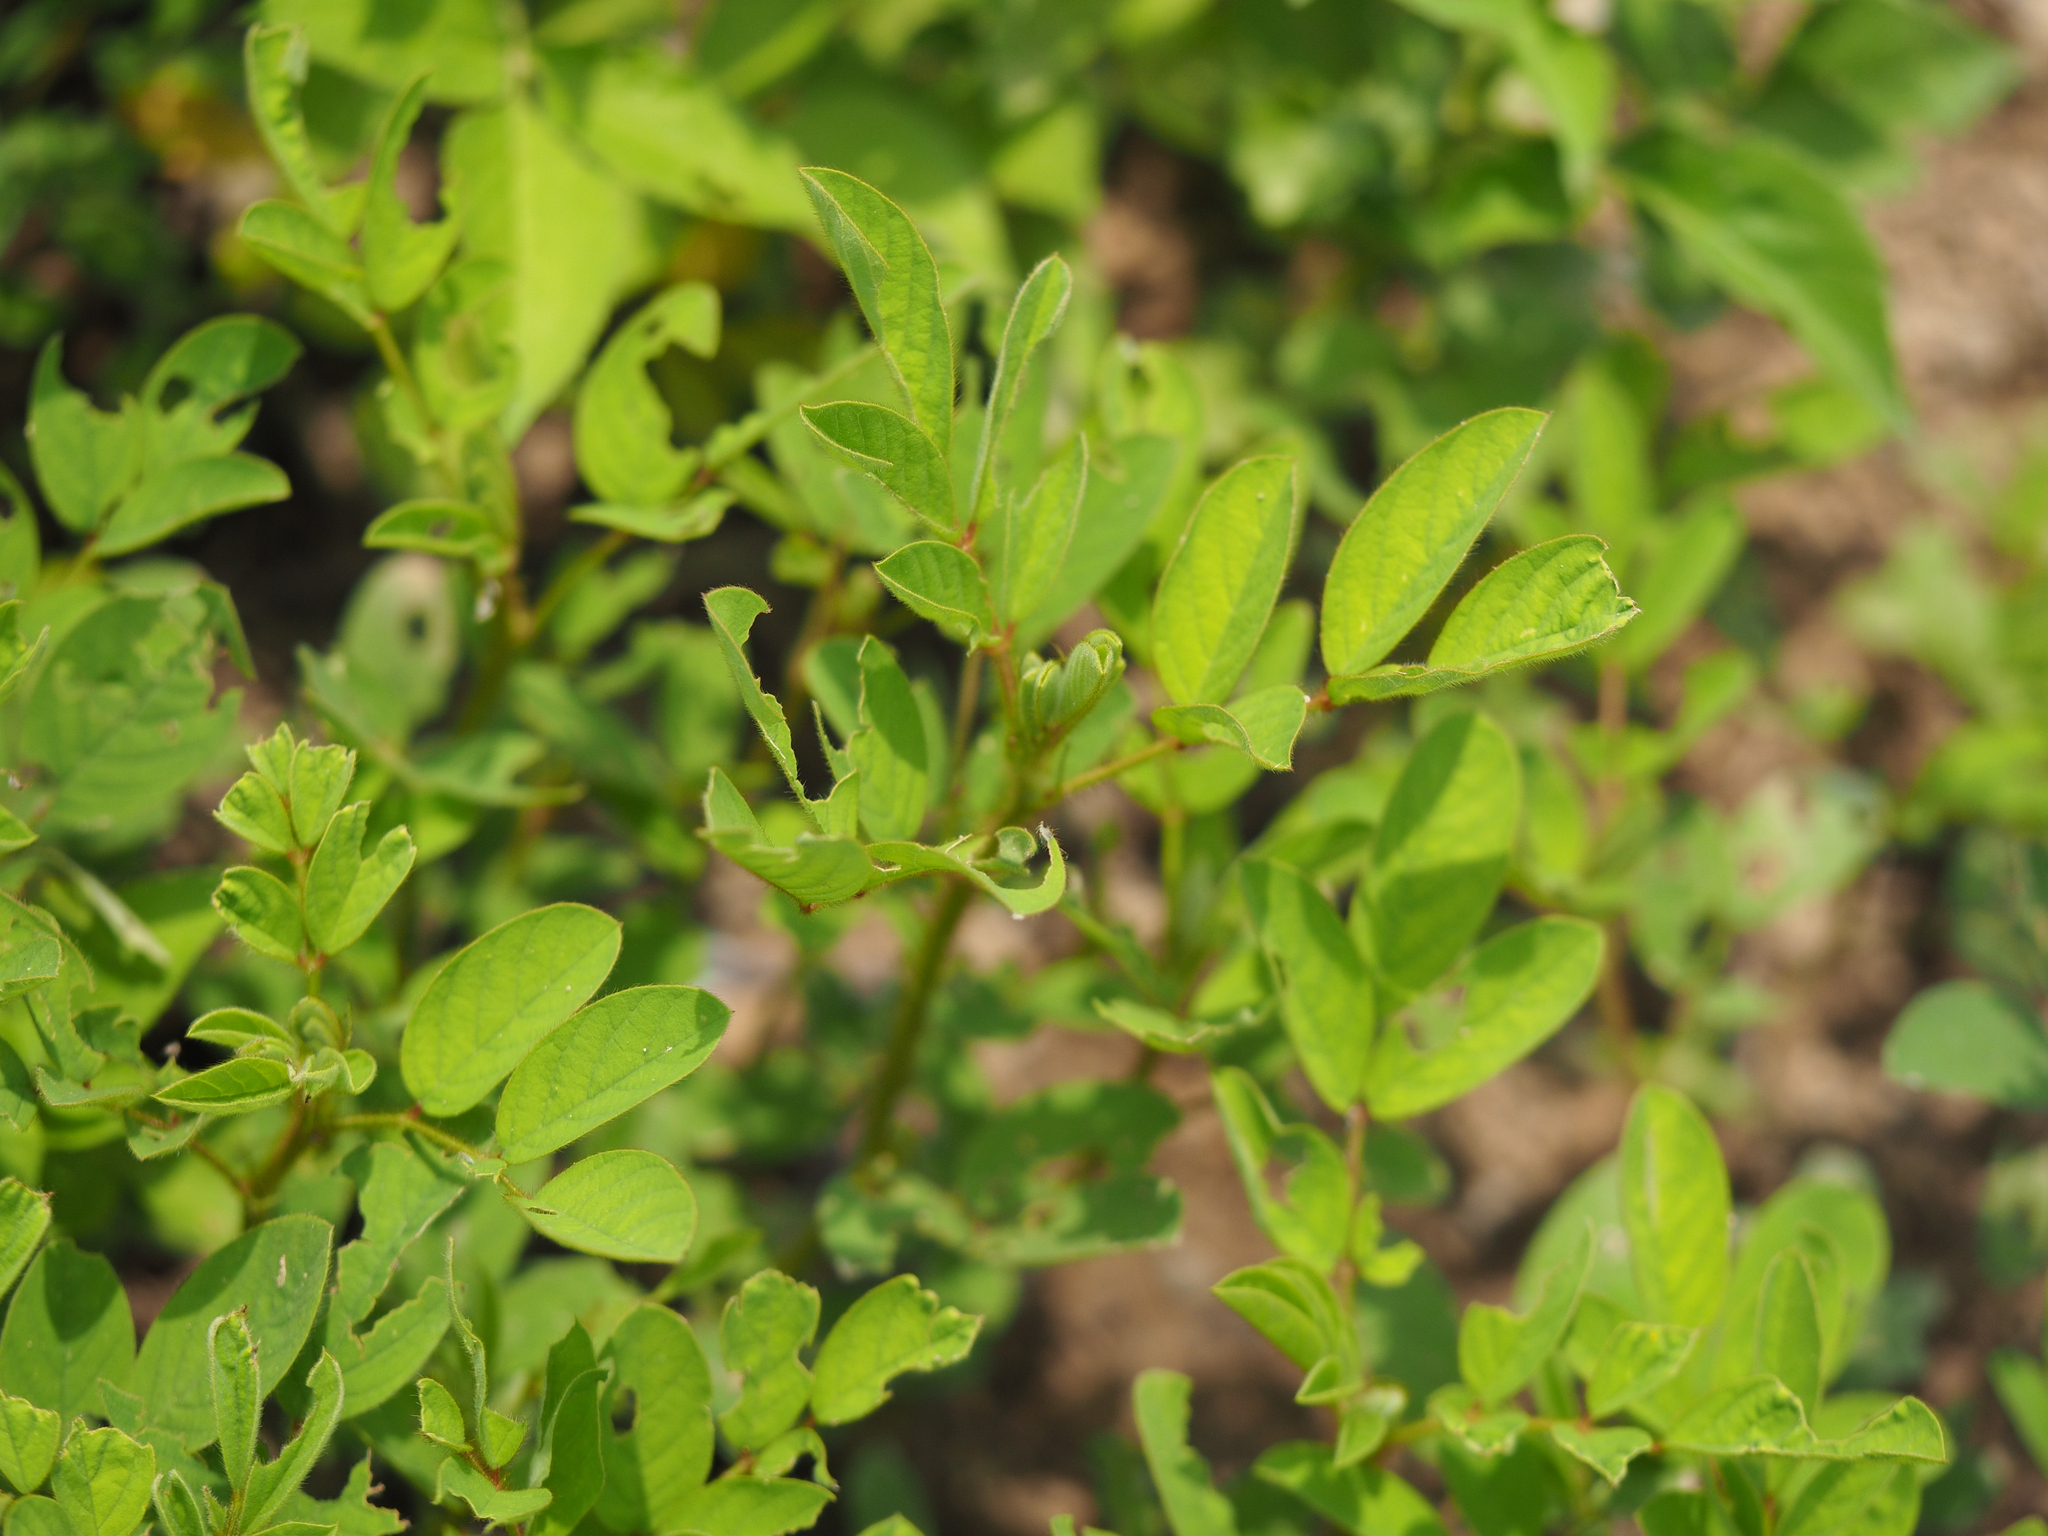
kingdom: Plantae
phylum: Tracheophyta
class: Magnoliopsida
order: Fabales
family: Fabaceae
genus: Indigofera
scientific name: Indigofera hirsuta
